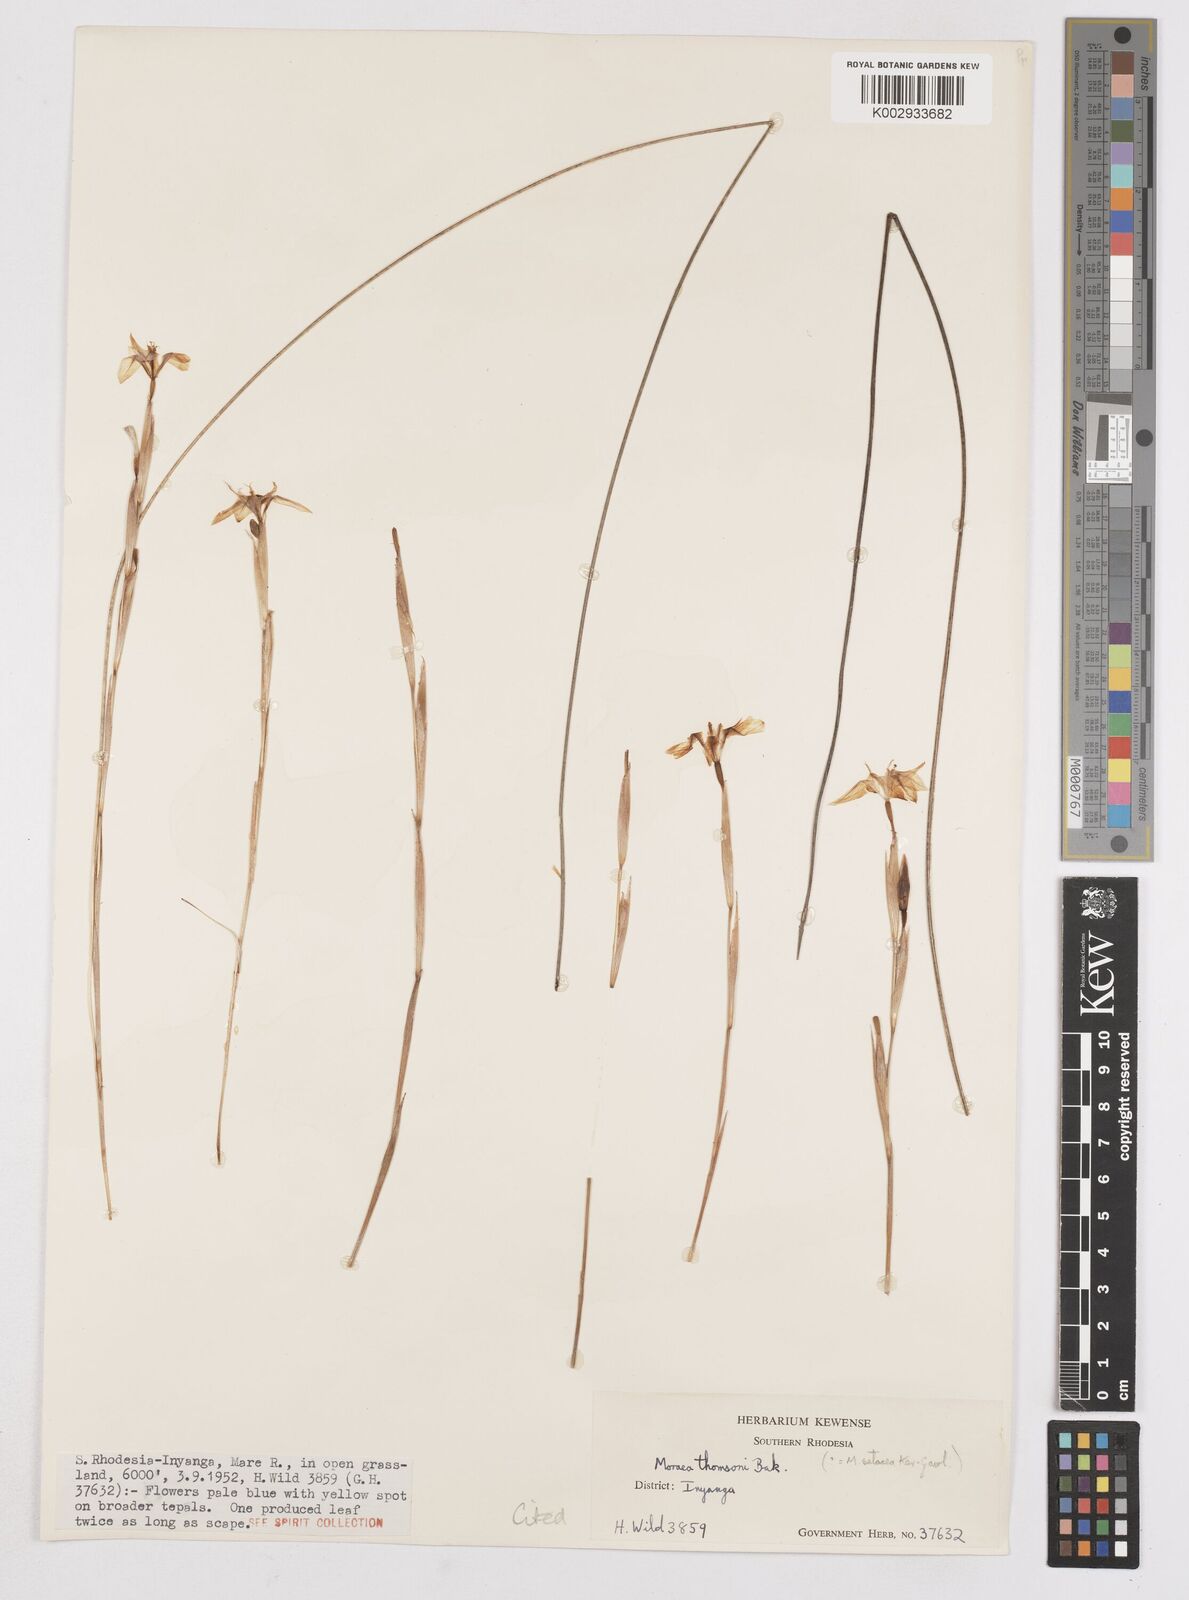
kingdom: Plantae
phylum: Tracheophyta
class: Liliopsida
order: Asparagales
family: Iridaceae
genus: Moraea
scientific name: Moraea thomsonii
